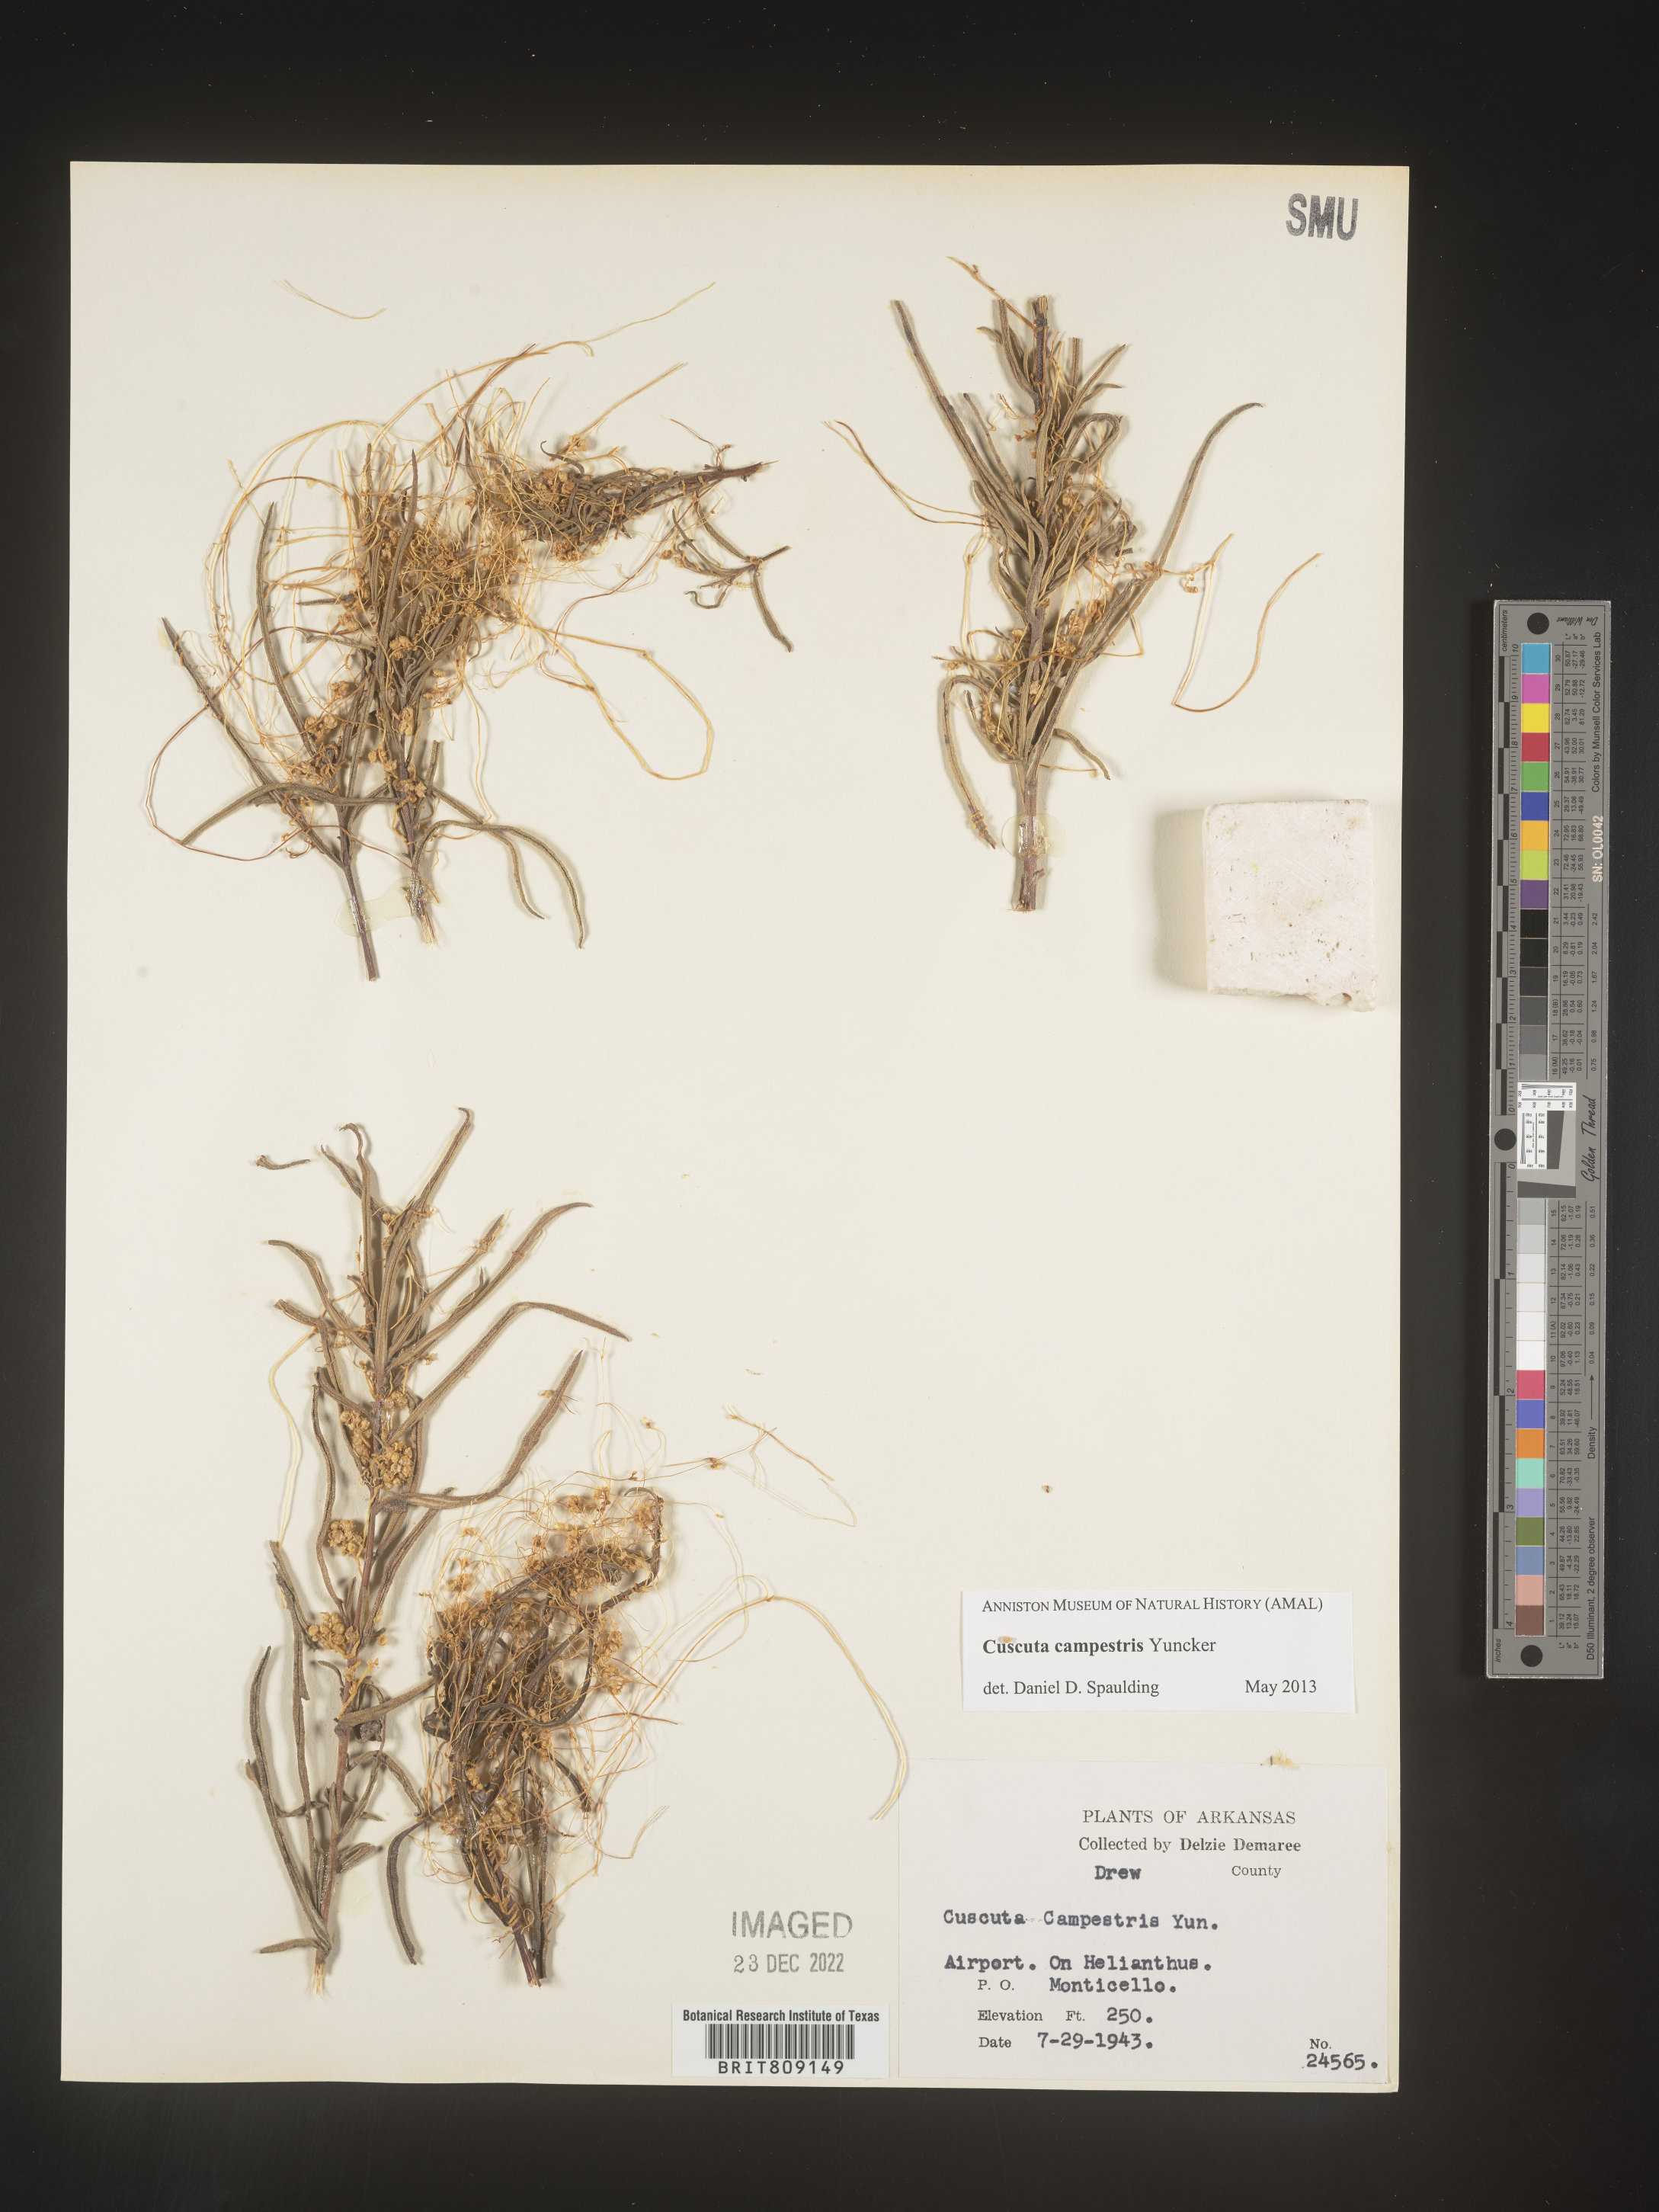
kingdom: Plantae
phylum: Tracheophyta
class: Magnoliopsida
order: Solanales
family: Convolvulaceae
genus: Cuscuta
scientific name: Cuscuta campestris
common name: Yellow dodder
